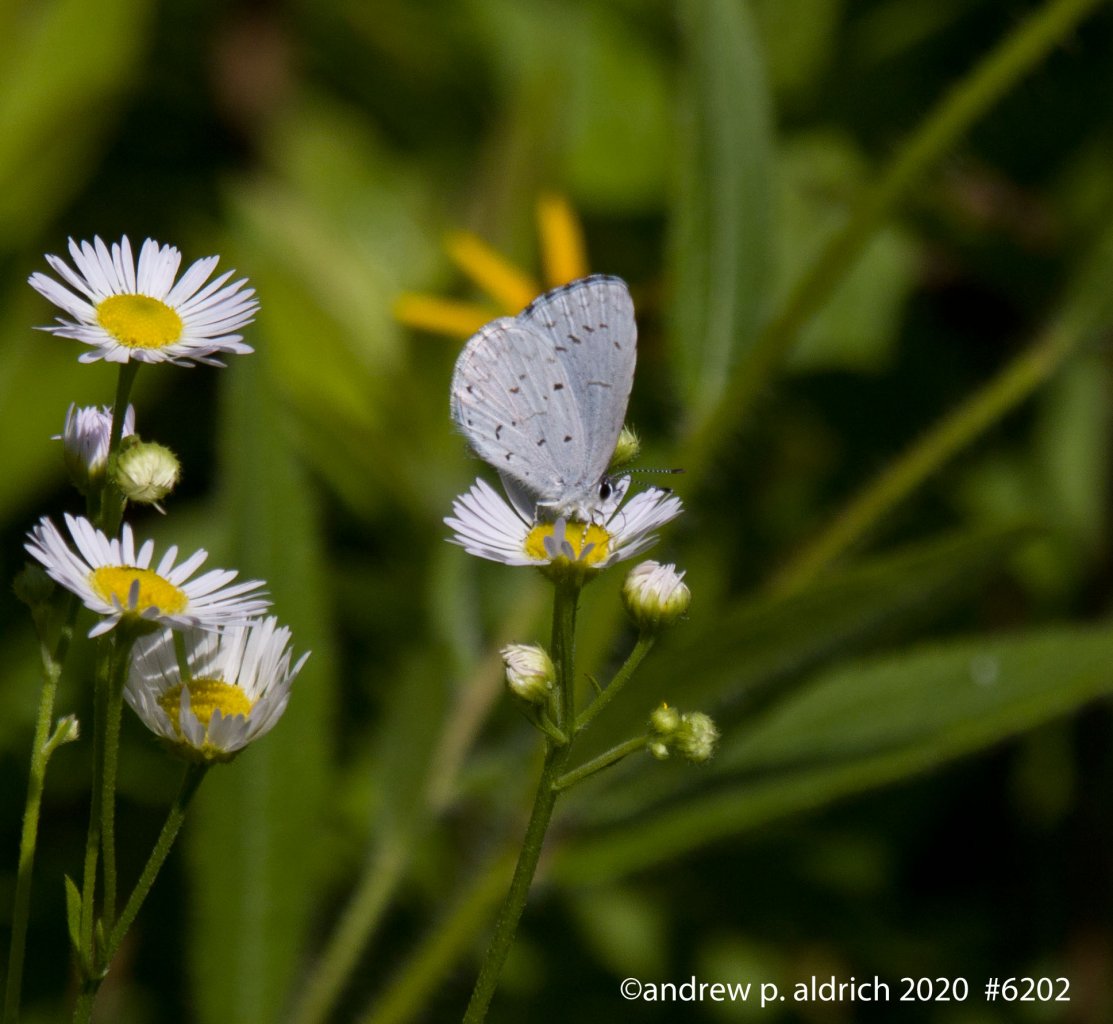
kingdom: Animalia
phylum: Arthropoda
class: Insecta
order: Lepidoptera
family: Lycaenidae
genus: Celastrina
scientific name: Celastrina
